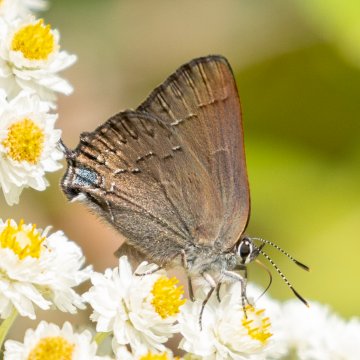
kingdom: Animalia
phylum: Arthropoda
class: Insecta
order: Lepidoptera
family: Lycaenidae
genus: Strymon
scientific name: Strymon saepium
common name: Hedgerow Hairstreak
